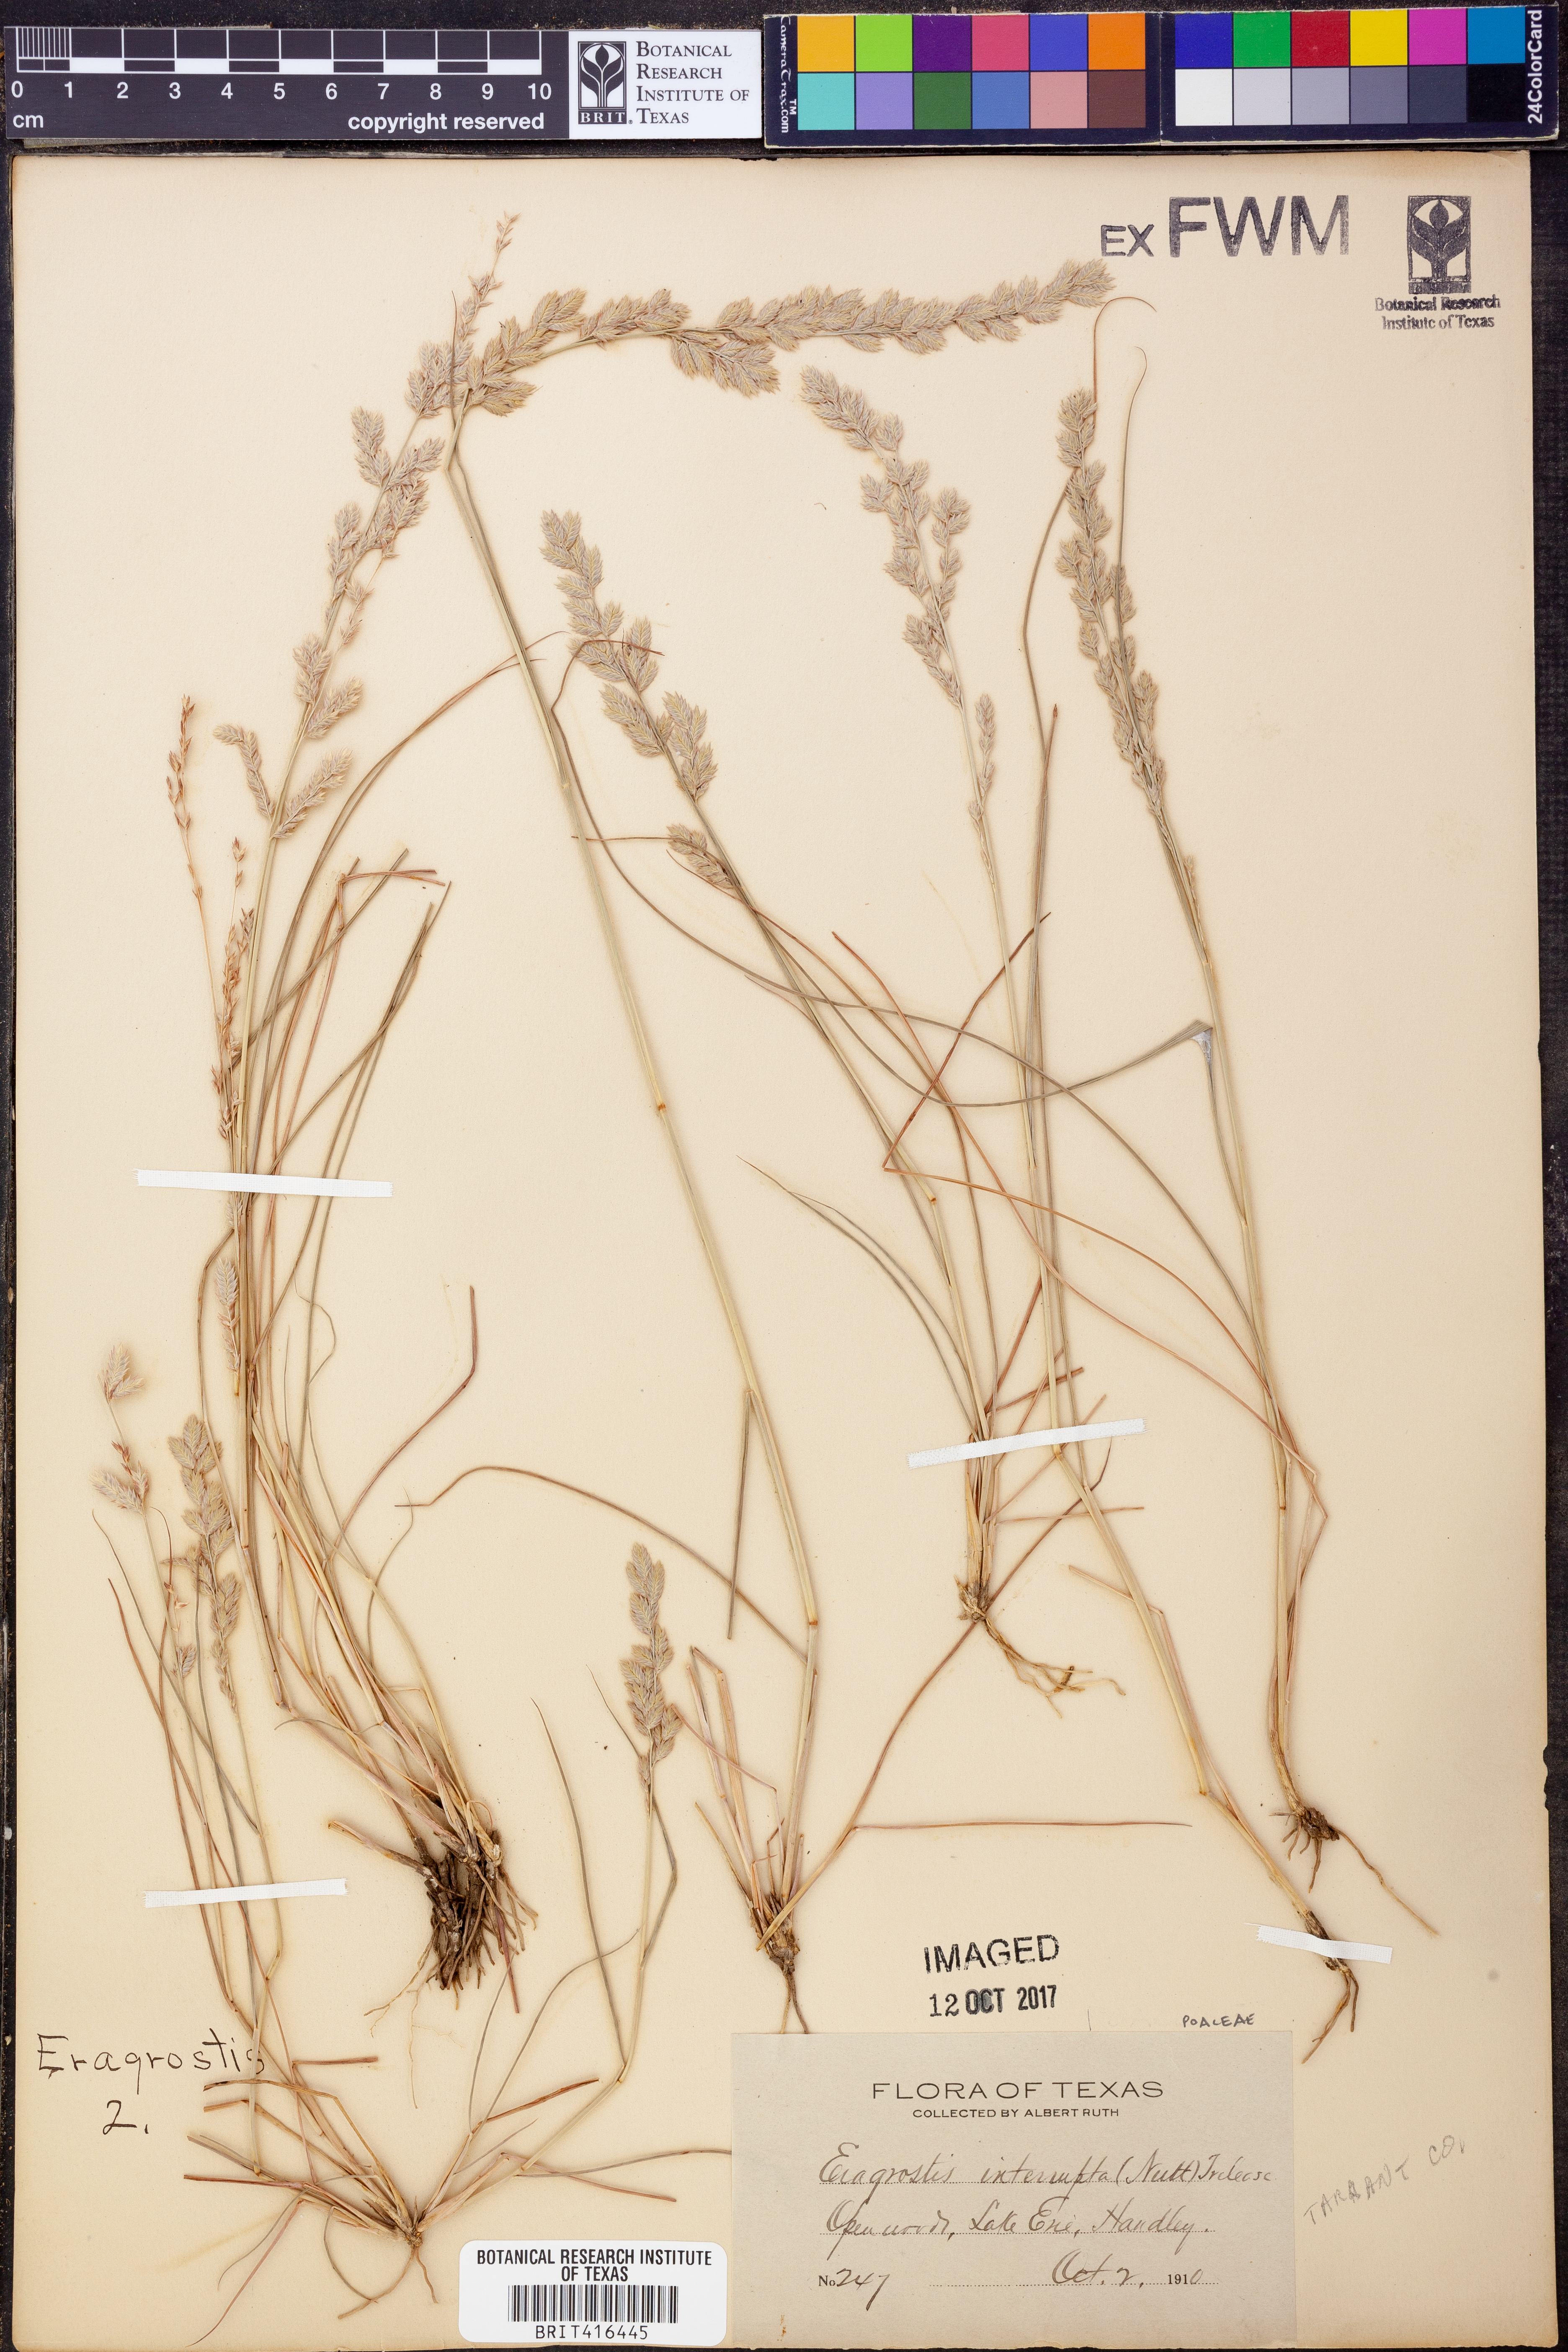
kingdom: Plantae
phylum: Tracheophyta
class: Liliopsida
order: Poales
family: Poaceae
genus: Eragrostis
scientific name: Eragrostis japonica
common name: Pond lovegrass
